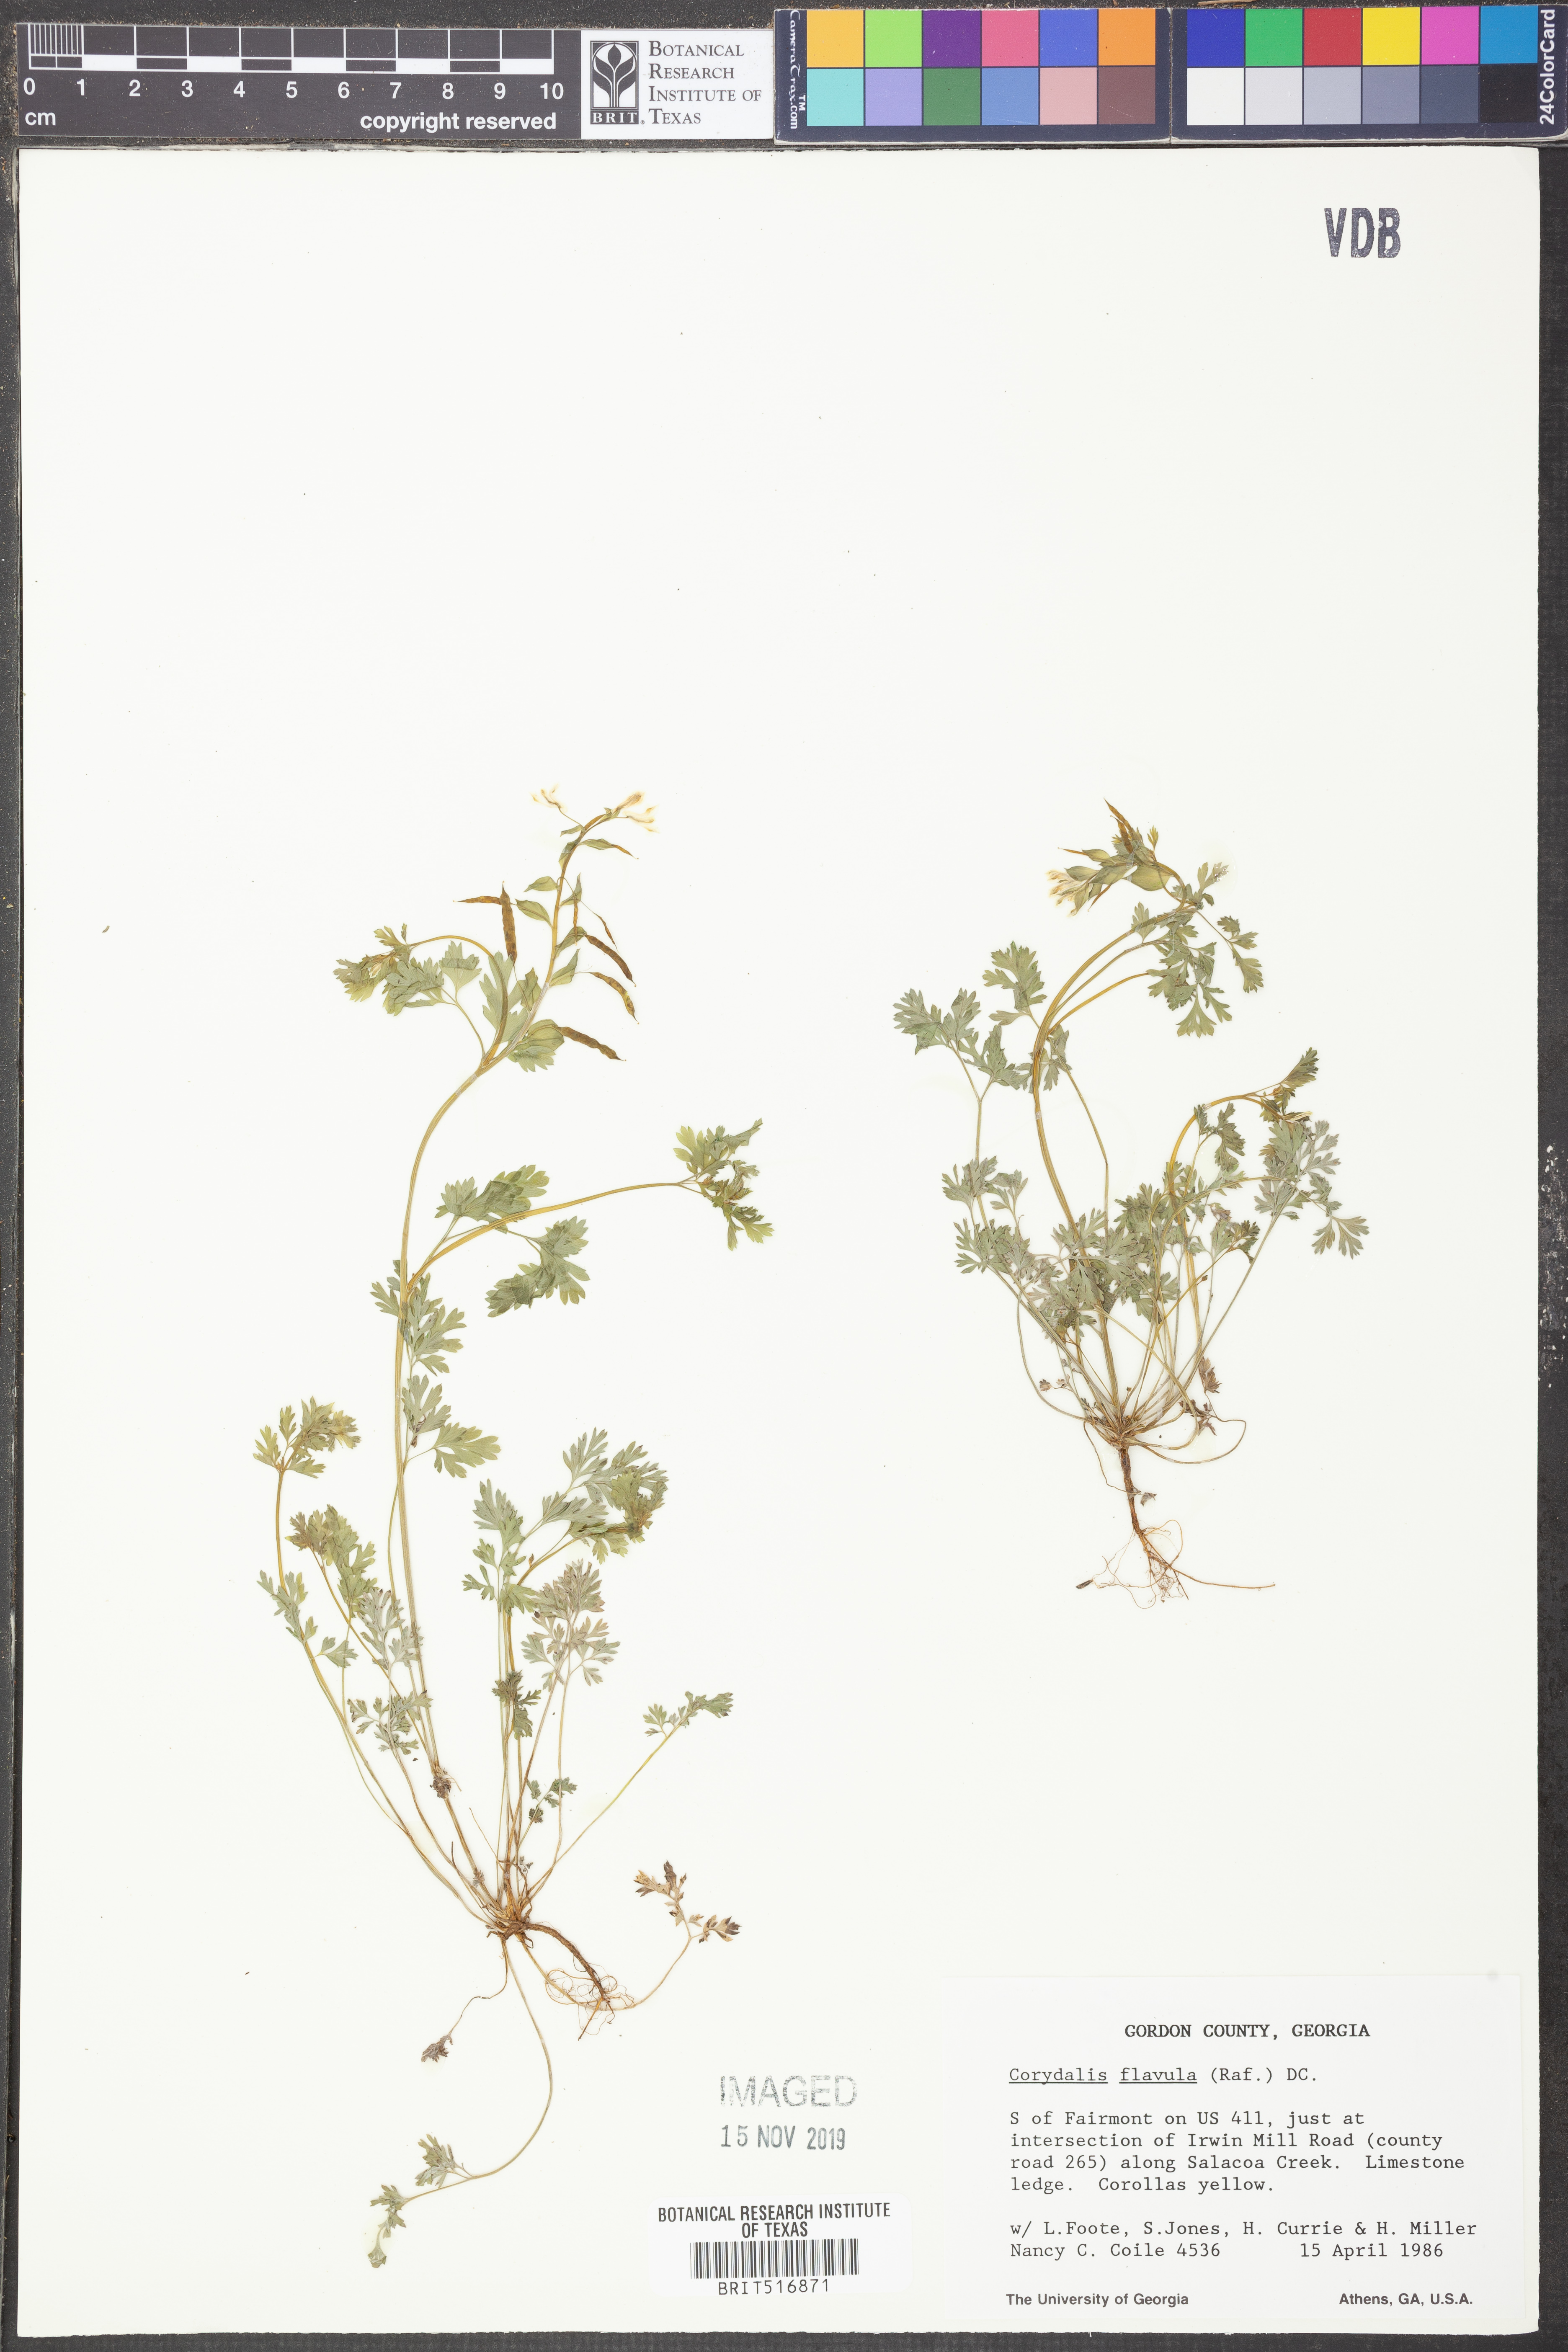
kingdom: Plantae
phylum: Tracheophyta
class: Magnoliopsida
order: Ranunculales
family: Papaveraceae
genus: Corydalis
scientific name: Corydalis flavula
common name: Yellow corydalis
